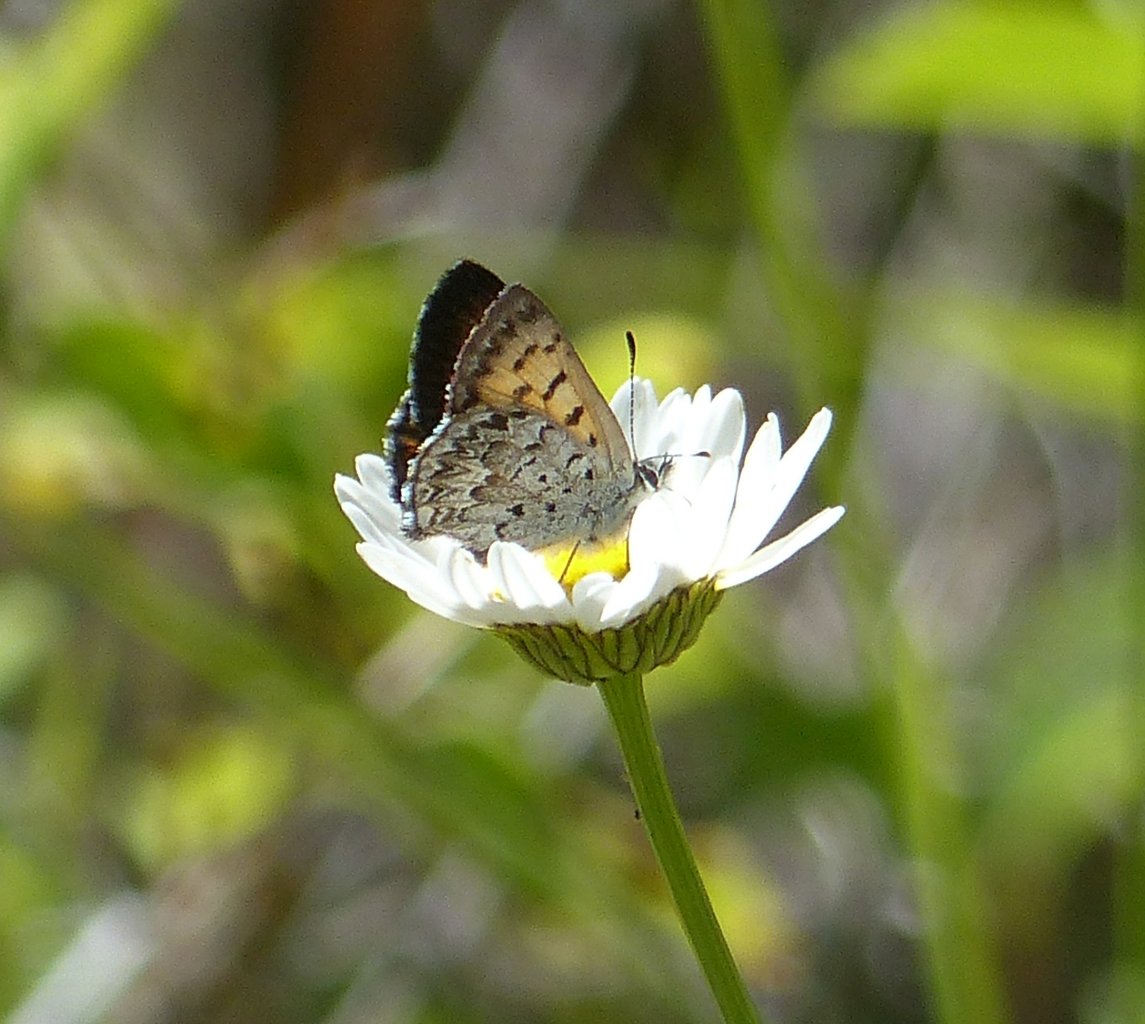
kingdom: Animalia
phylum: Arthropoda
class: Insecta
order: Lepidoptera
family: Lycaenidae
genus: Lycaena
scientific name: Lycaena mariposa
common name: Mariposa Copper
